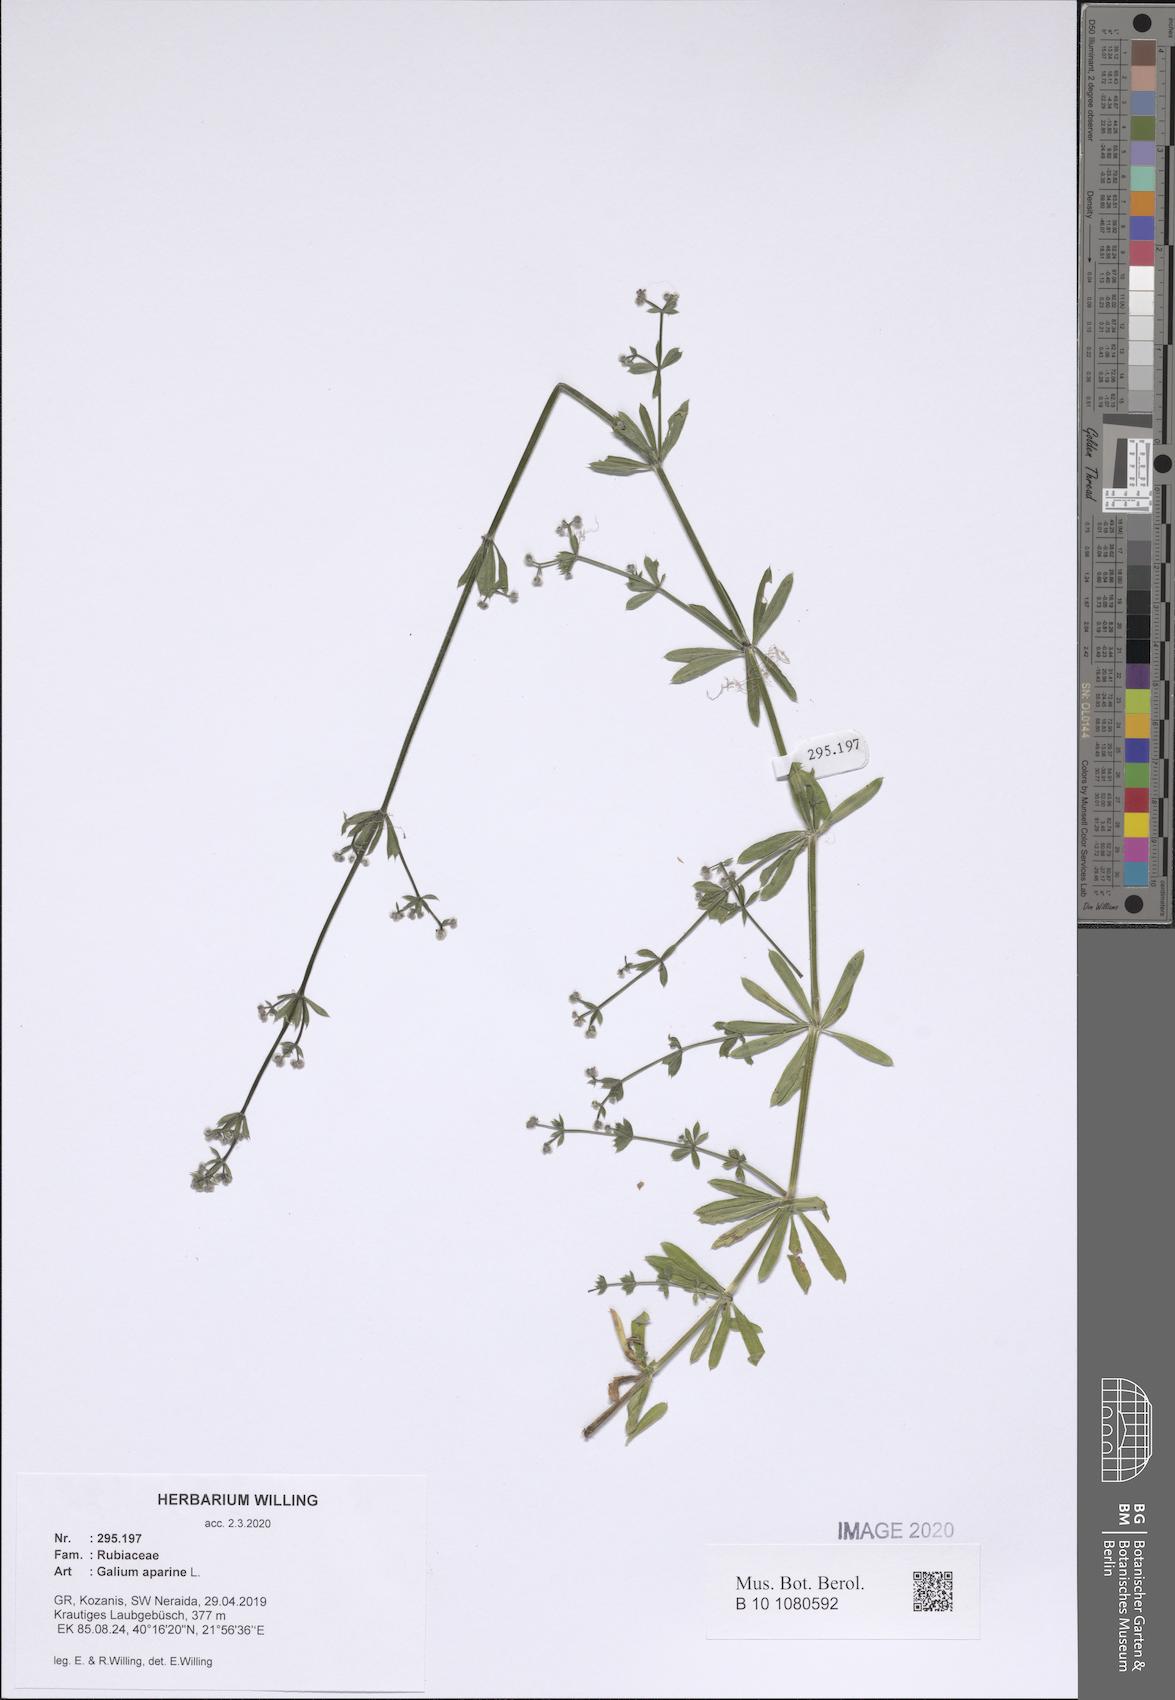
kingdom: Plantae
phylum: Tracheophyta
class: Magnoliopsida
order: Gentianales
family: Rubiaceae
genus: Galium
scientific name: Galium aparine
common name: Cleavers
